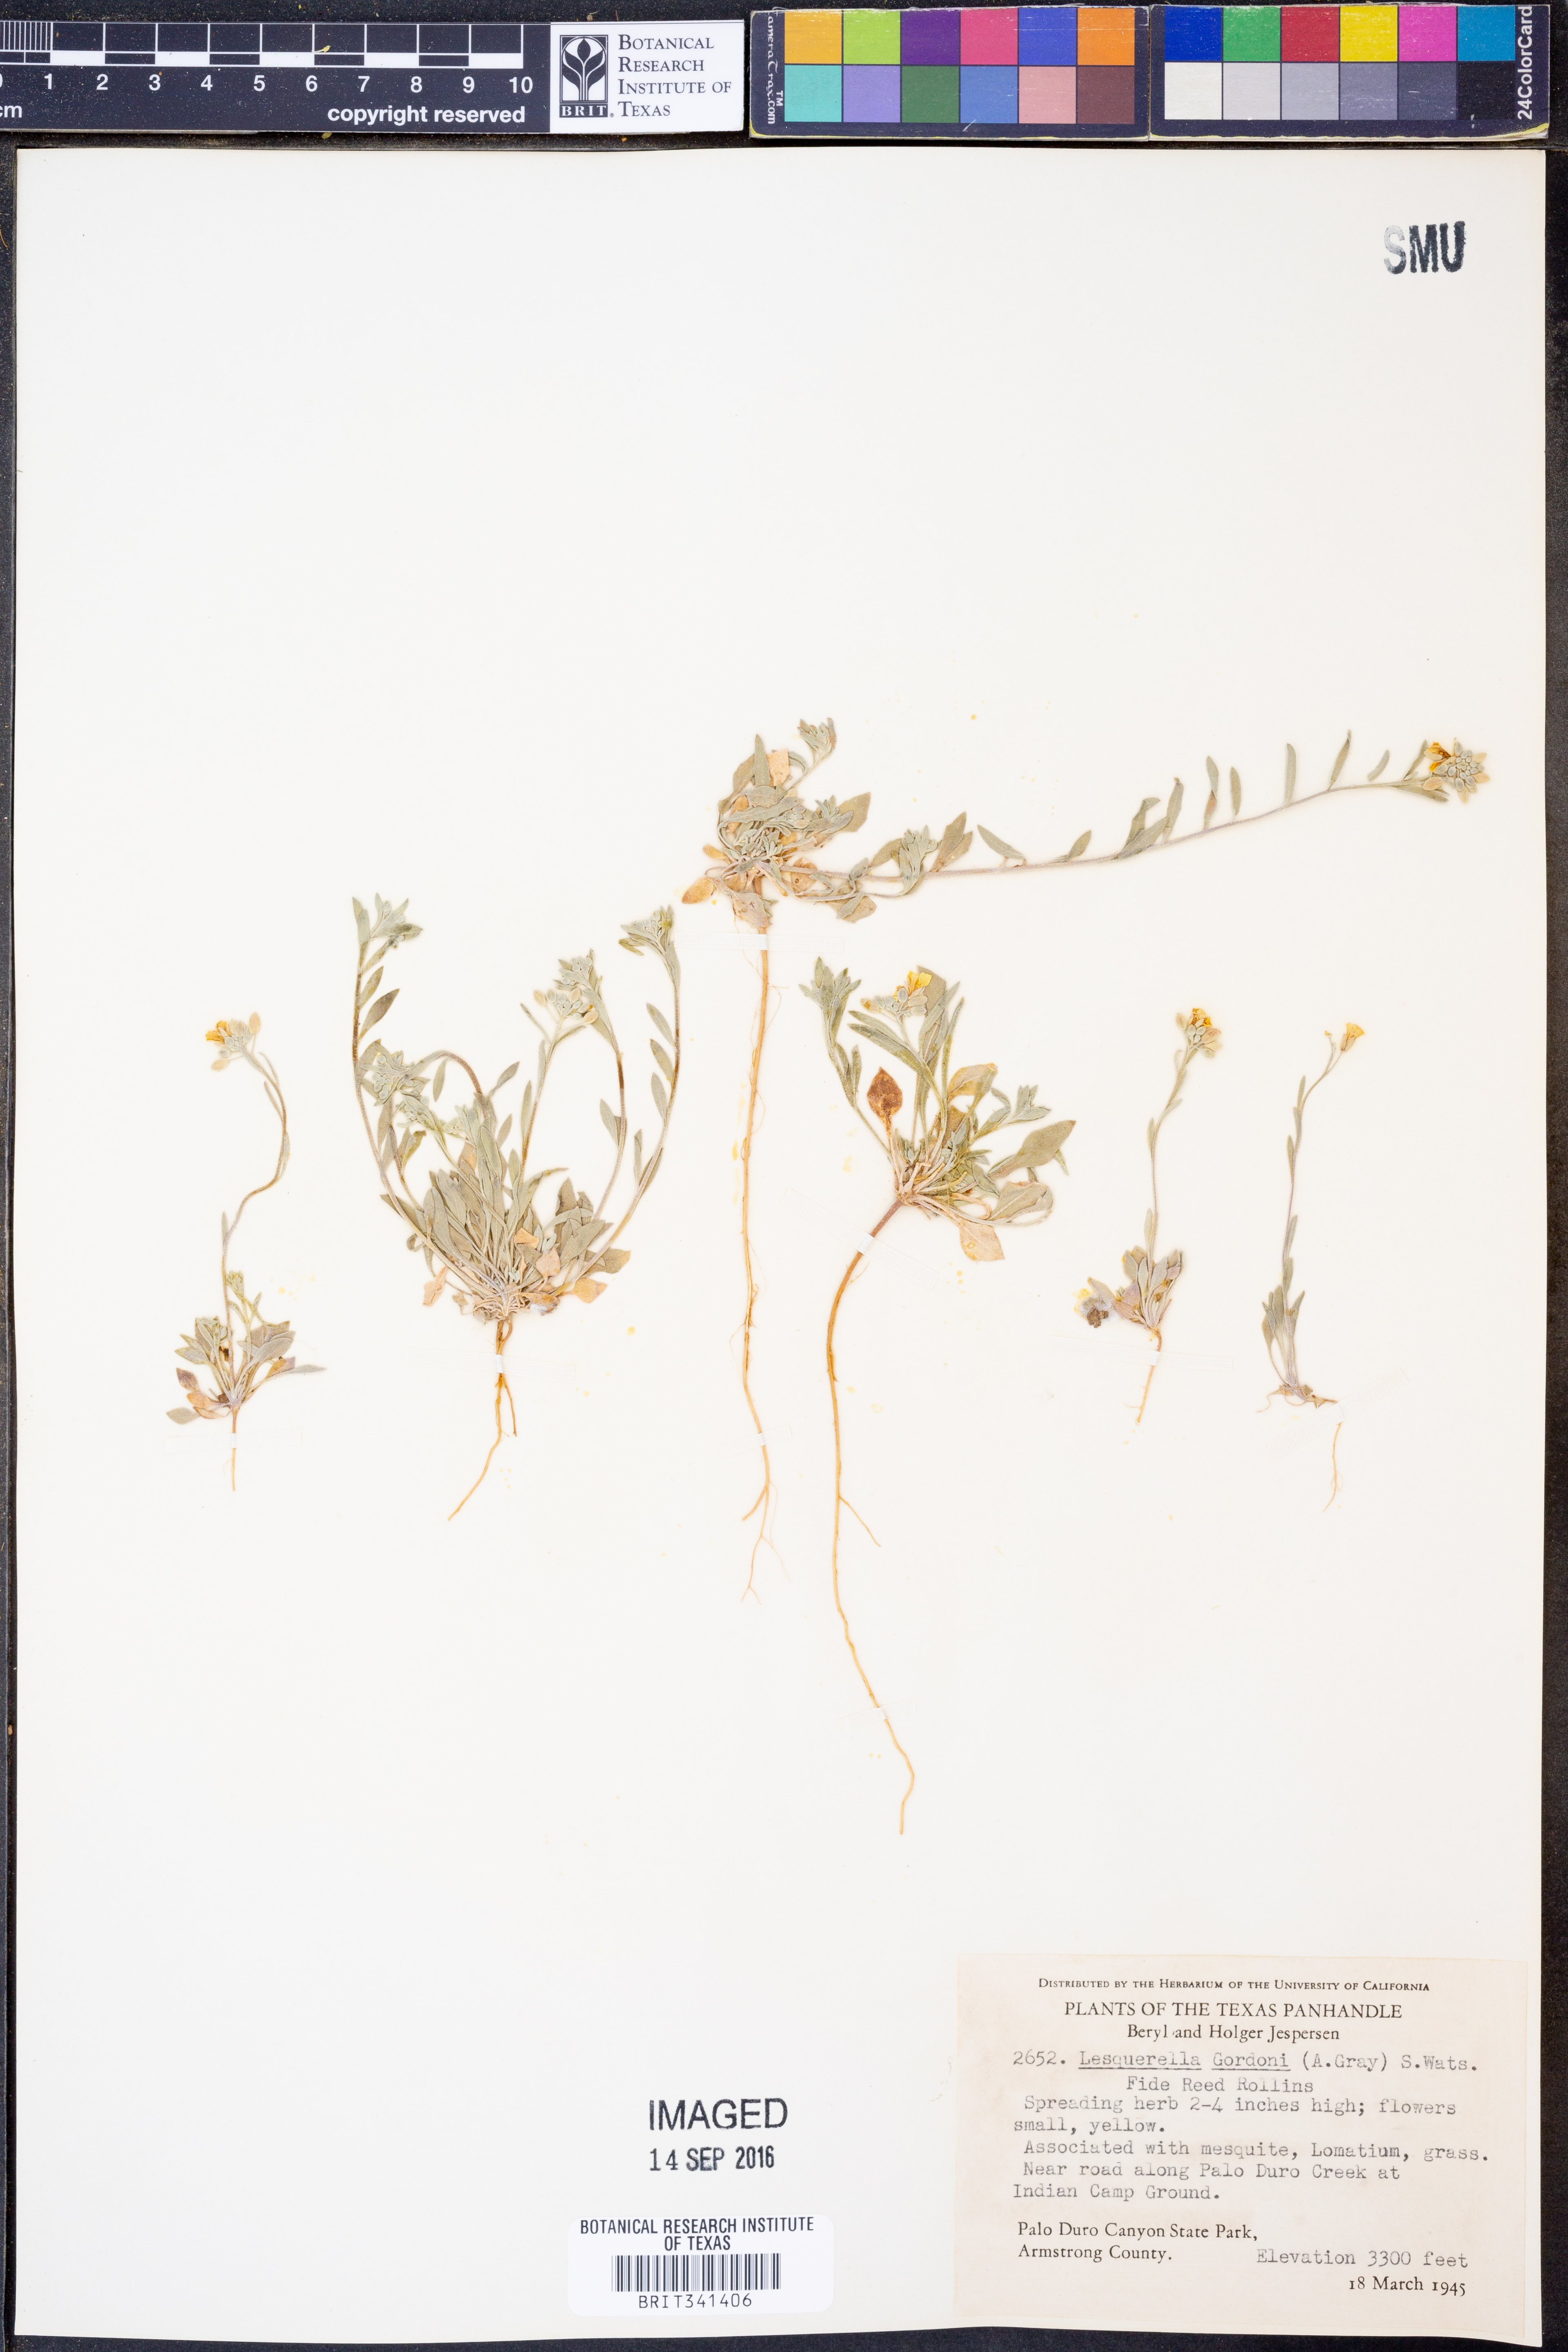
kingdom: Plantae
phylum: Tracheophyta
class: Magnoliopsida
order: Brassicales
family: Brassicaceae
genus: Physaria
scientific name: Physaria gordonii
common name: Gordon's bladderpod
